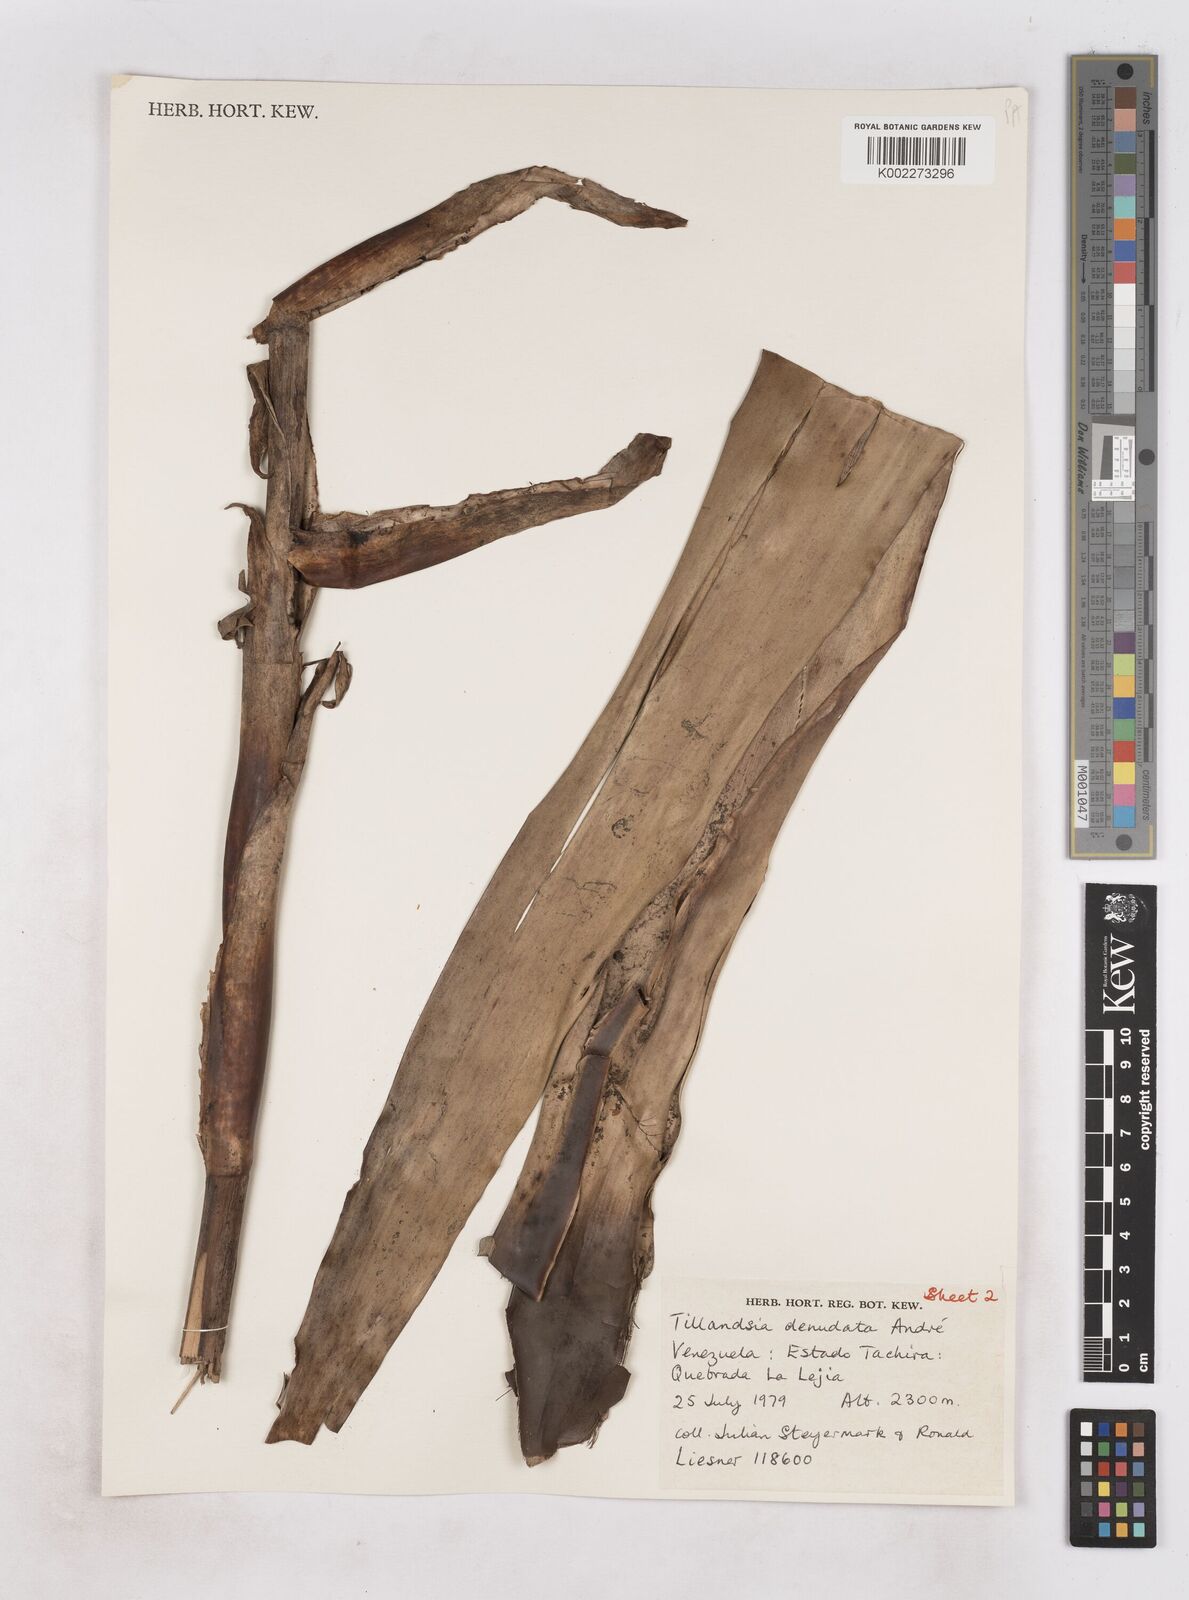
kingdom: Plantae
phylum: Tracheophyta
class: Liliopsida
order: Poales
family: Bromeliaceae
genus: Tillandsia
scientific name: Tillandsia denudata
